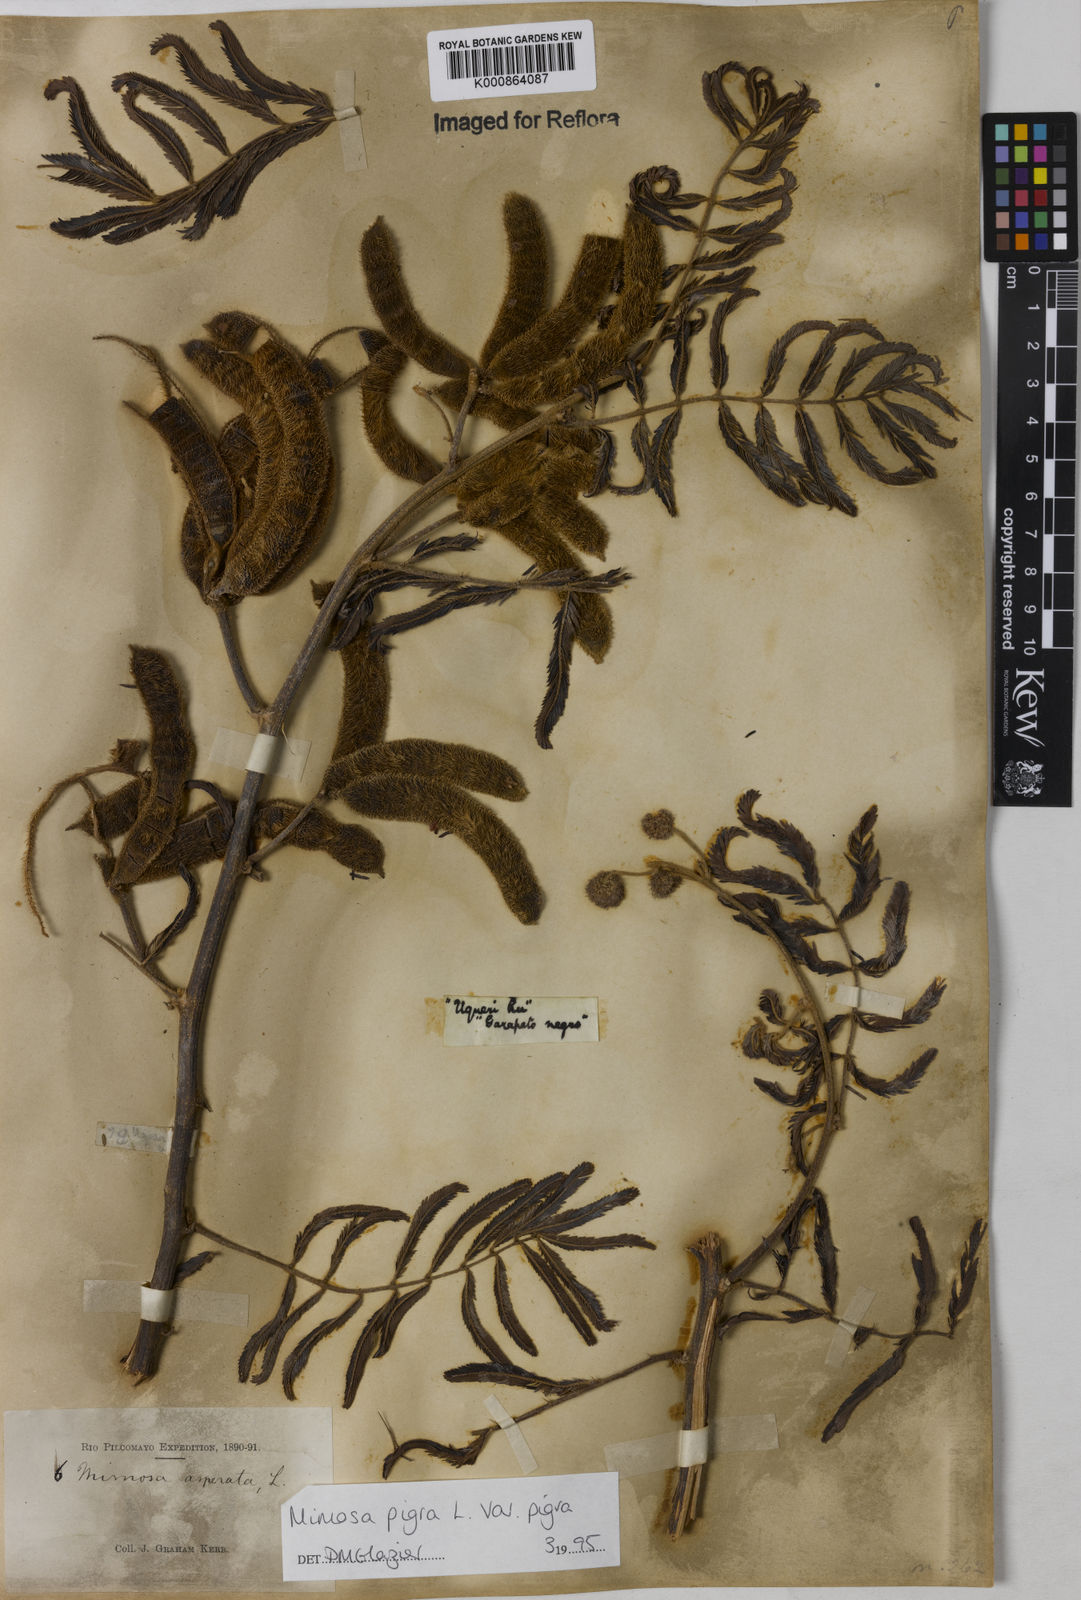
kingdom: Plantae
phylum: Tracheophyta
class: Magnoliopsida
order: Fabales
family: Fabaceae
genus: Mimosa
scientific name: Mimosa pigra
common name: Black mimosa
